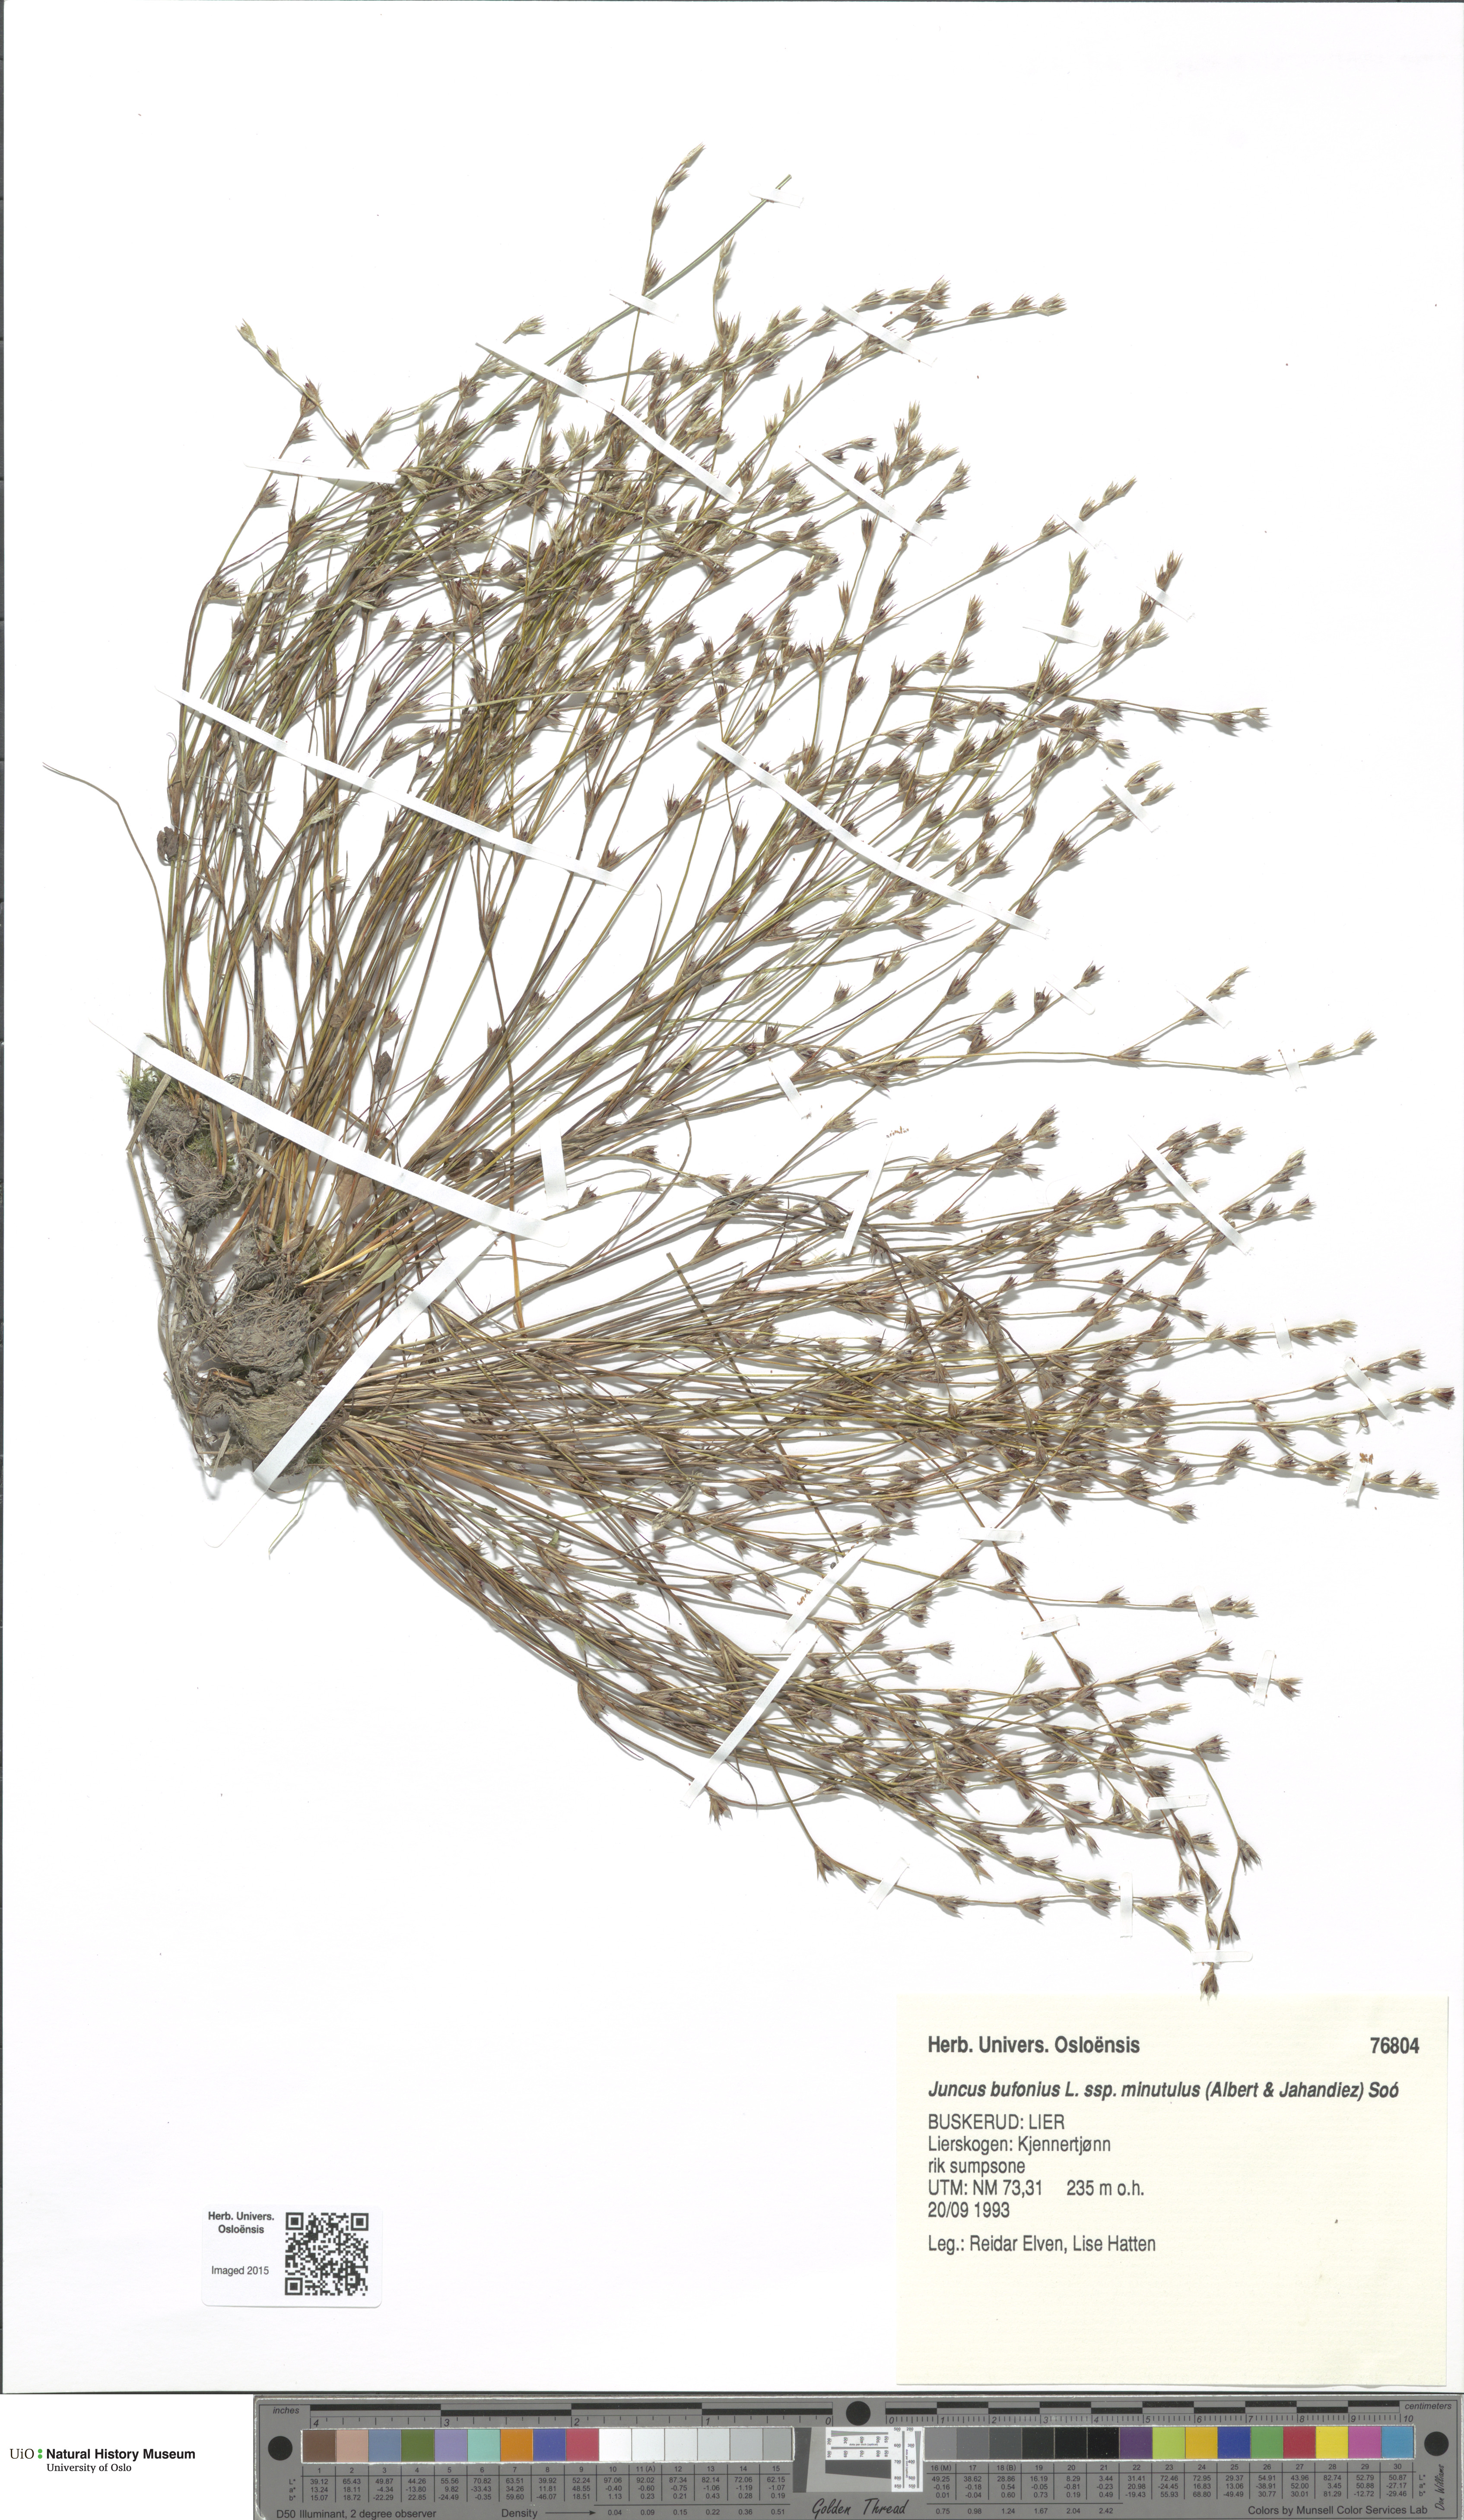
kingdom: Plantae
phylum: Tracheophyta
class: Liliopsida
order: Poales
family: Juncaceae
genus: Juncus
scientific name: Juncus minutulus
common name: Minute rush
